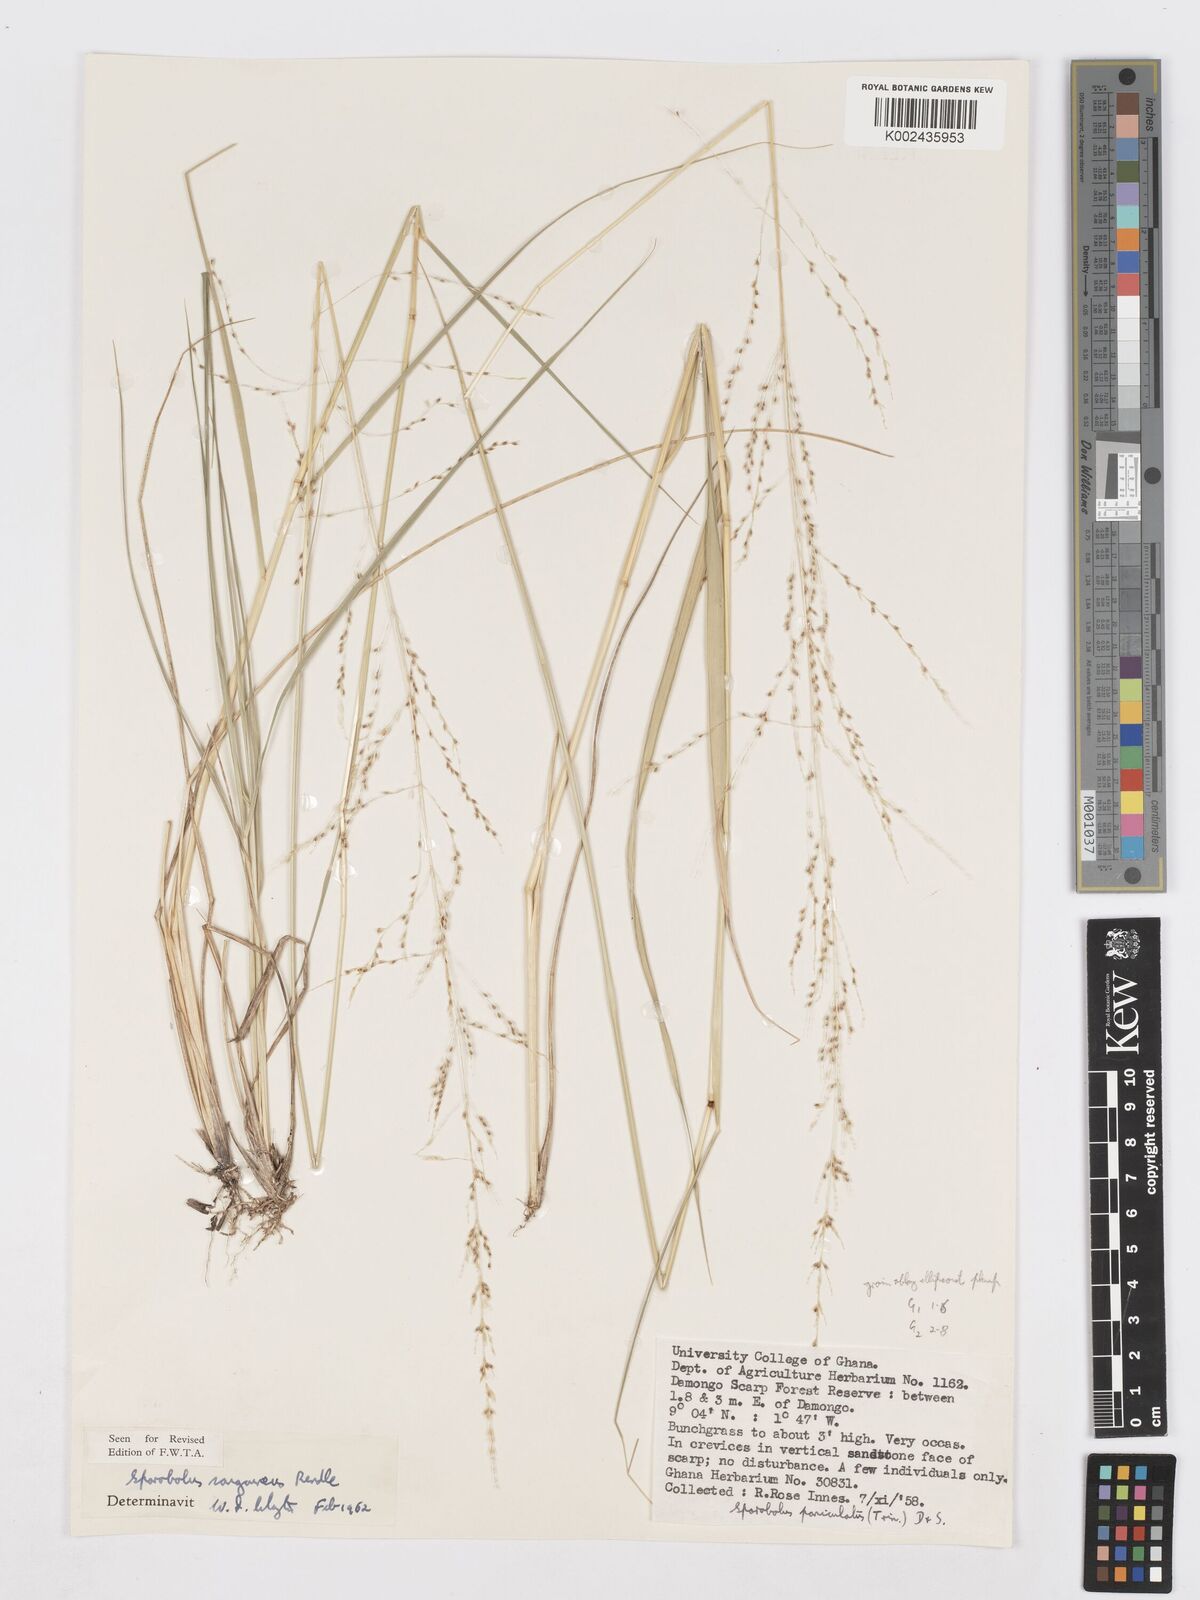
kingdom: Plantae
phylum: Tracheophyta
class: Liliopsida
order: Poales
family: Poaceae
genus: Sporobolus
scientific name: Sporobolus sanguineus
